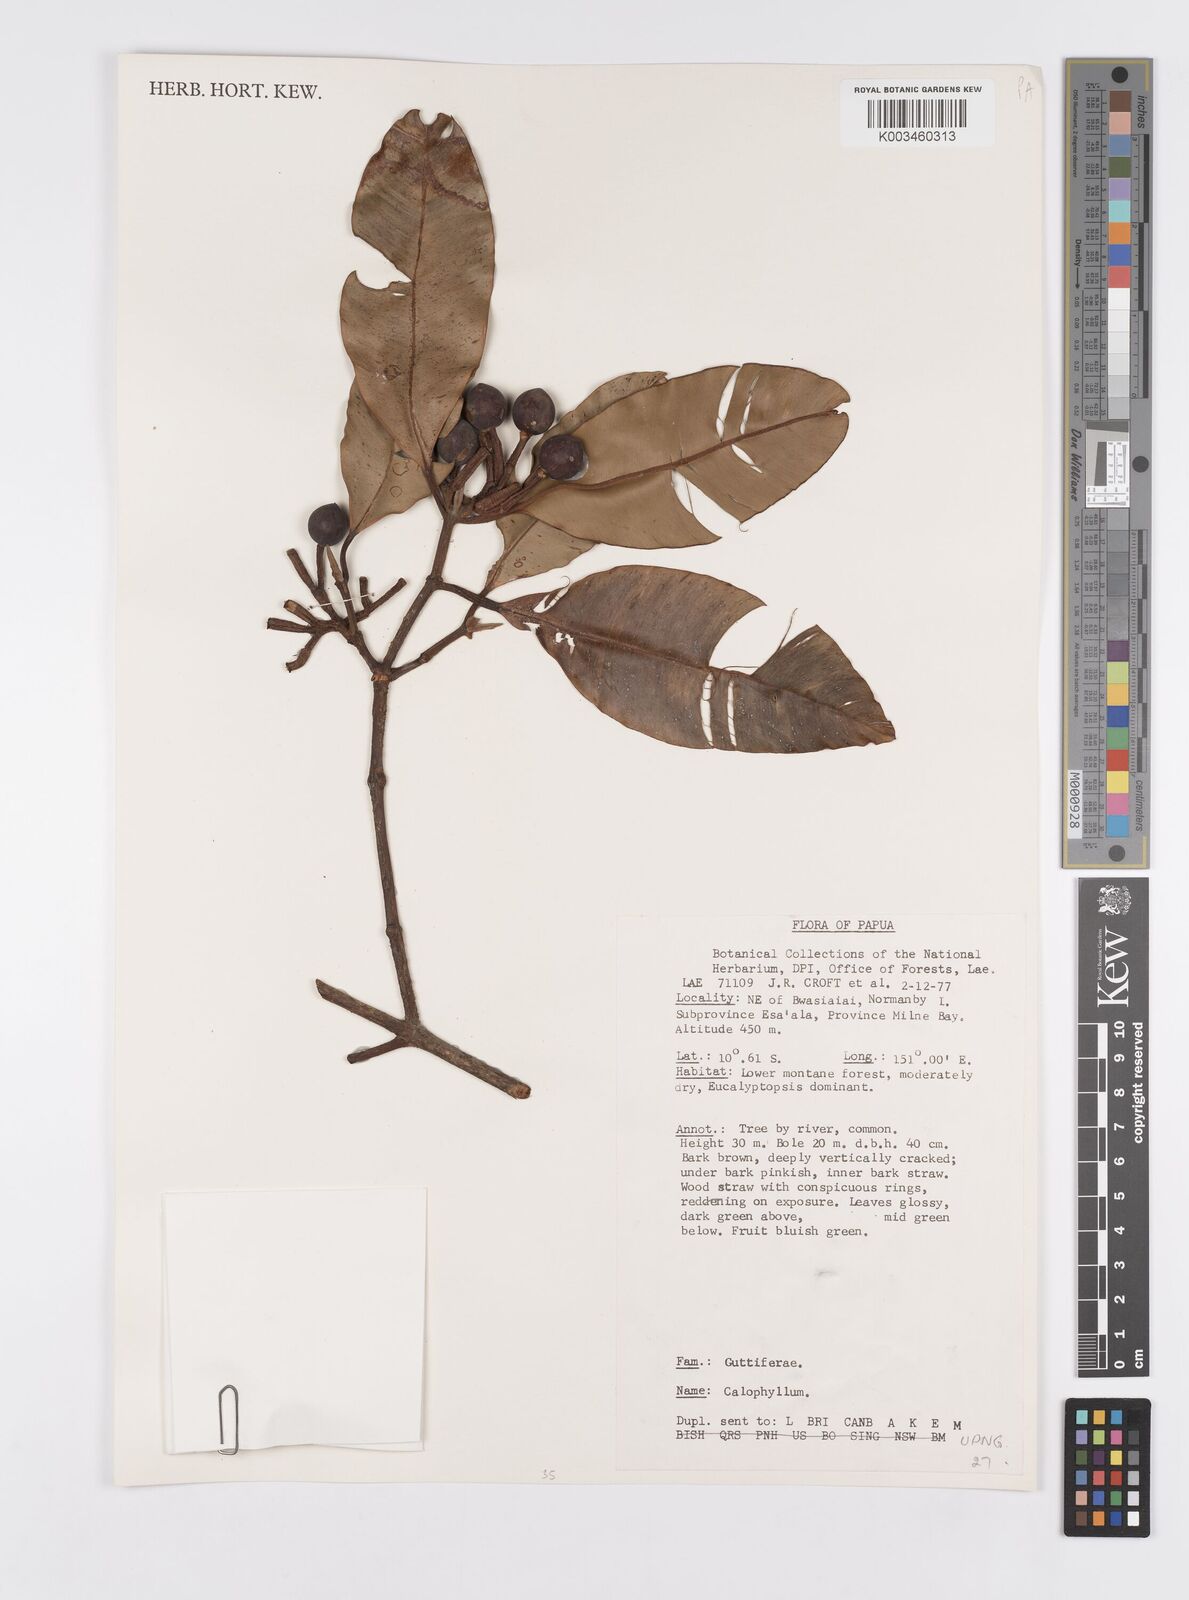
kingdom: Plantae
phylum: Tracheophyta
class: Magnoliopsida
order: Malpighiales
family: Calophyllaceae
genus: Calophyllum
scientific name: Calophyllum
